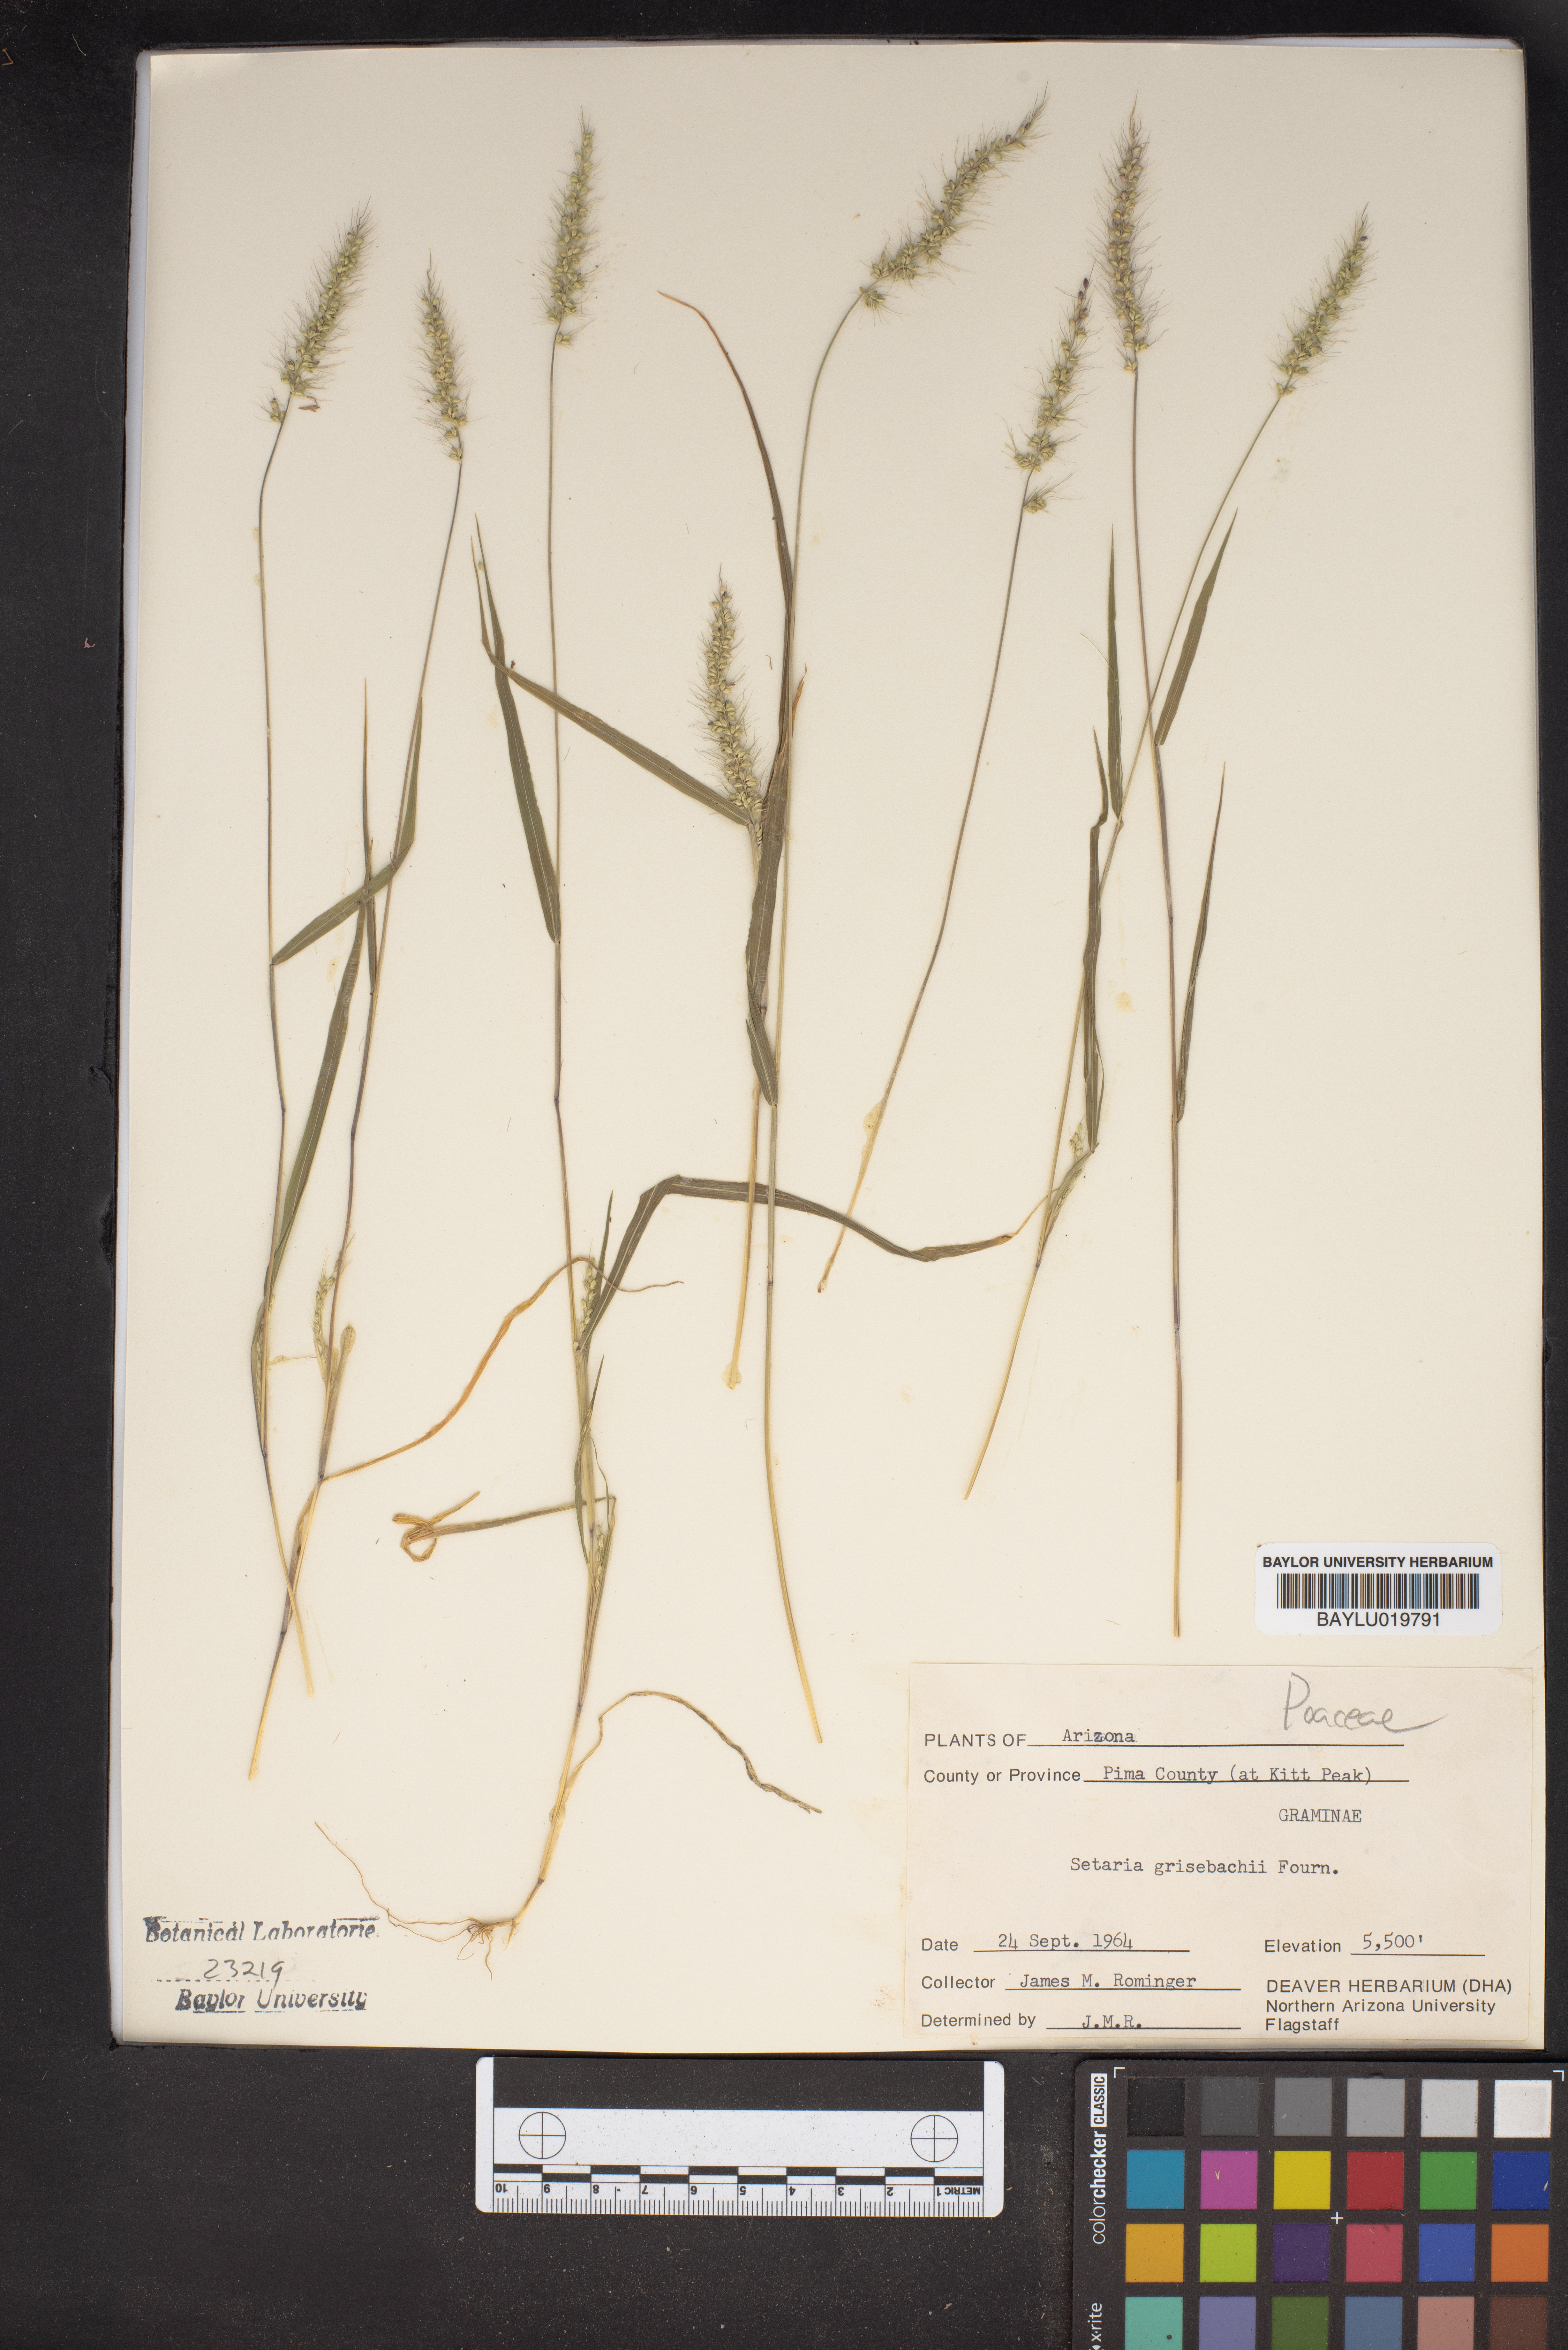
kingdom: Plantae
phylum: Tracheophyta
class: Liliopsida
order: Poales
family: Poaceae
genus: Setaria
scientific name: Setaria grisebachii
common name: Grisebach's bristle grass
